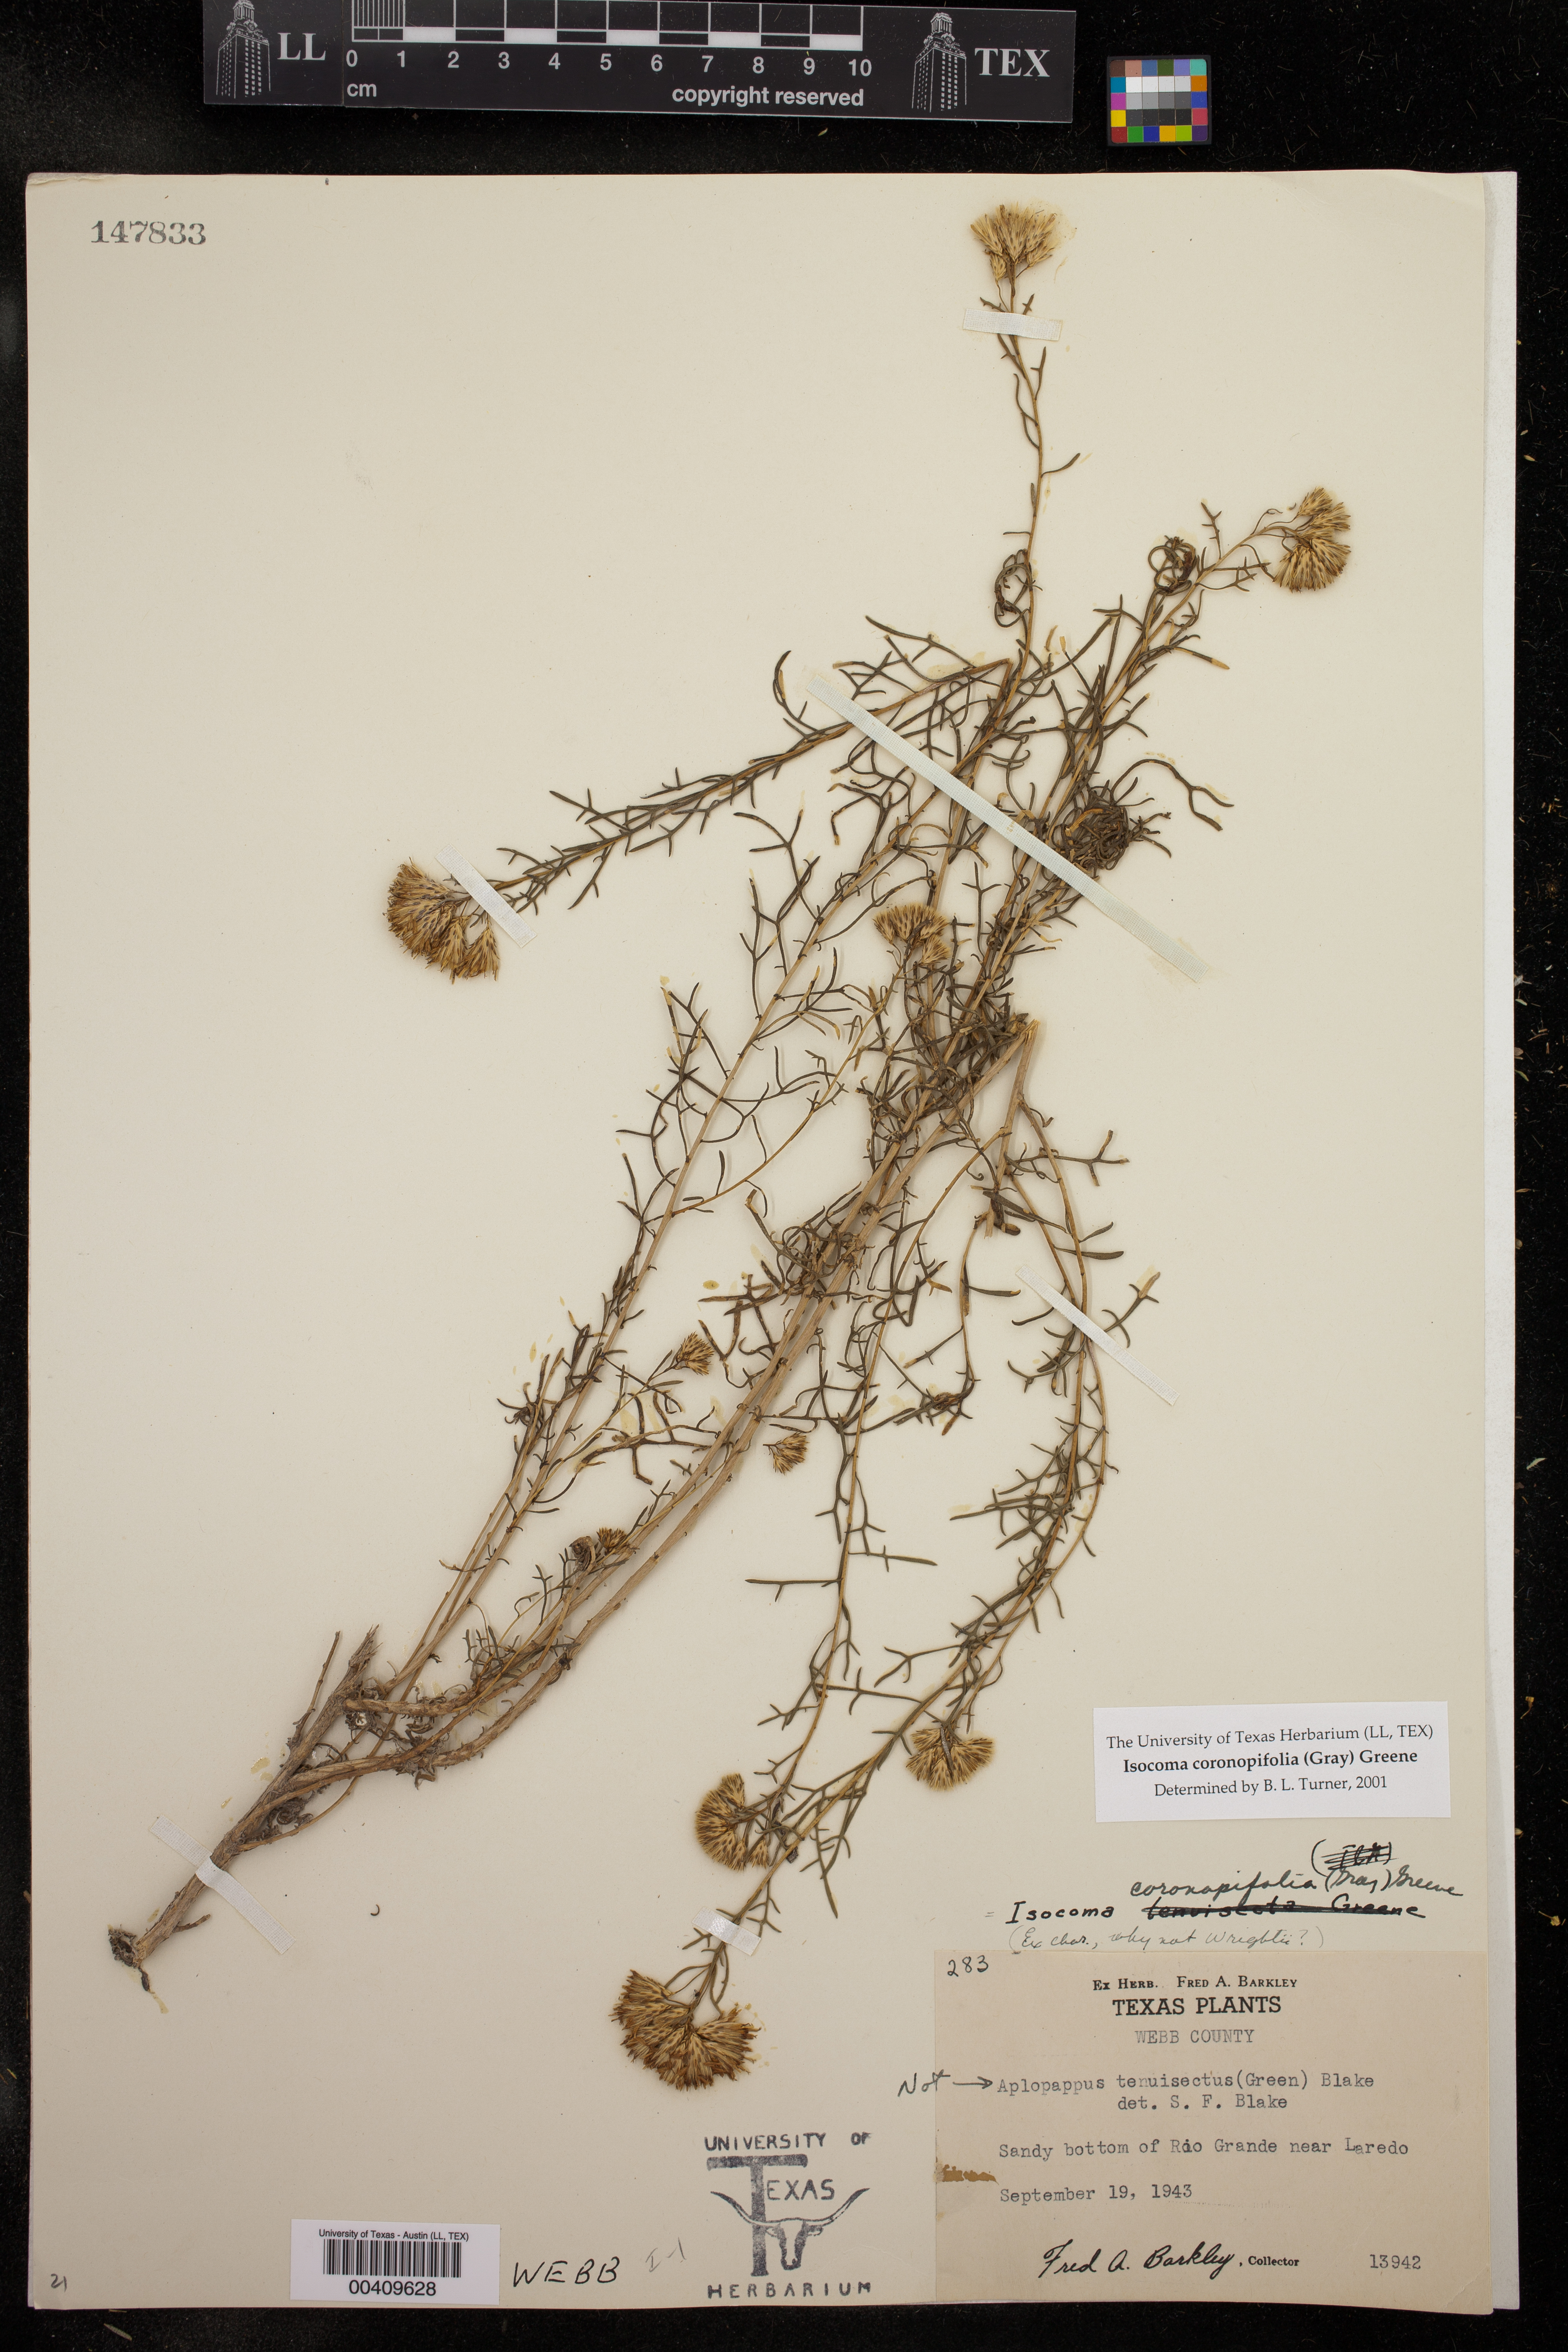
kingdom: Plantae
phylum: Tracheophyta
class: Magnoliopsida
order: Asterales
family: Asteraceae
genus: Isocoma
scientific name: Isocoma coronopifolia
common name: Common jimmyweed
